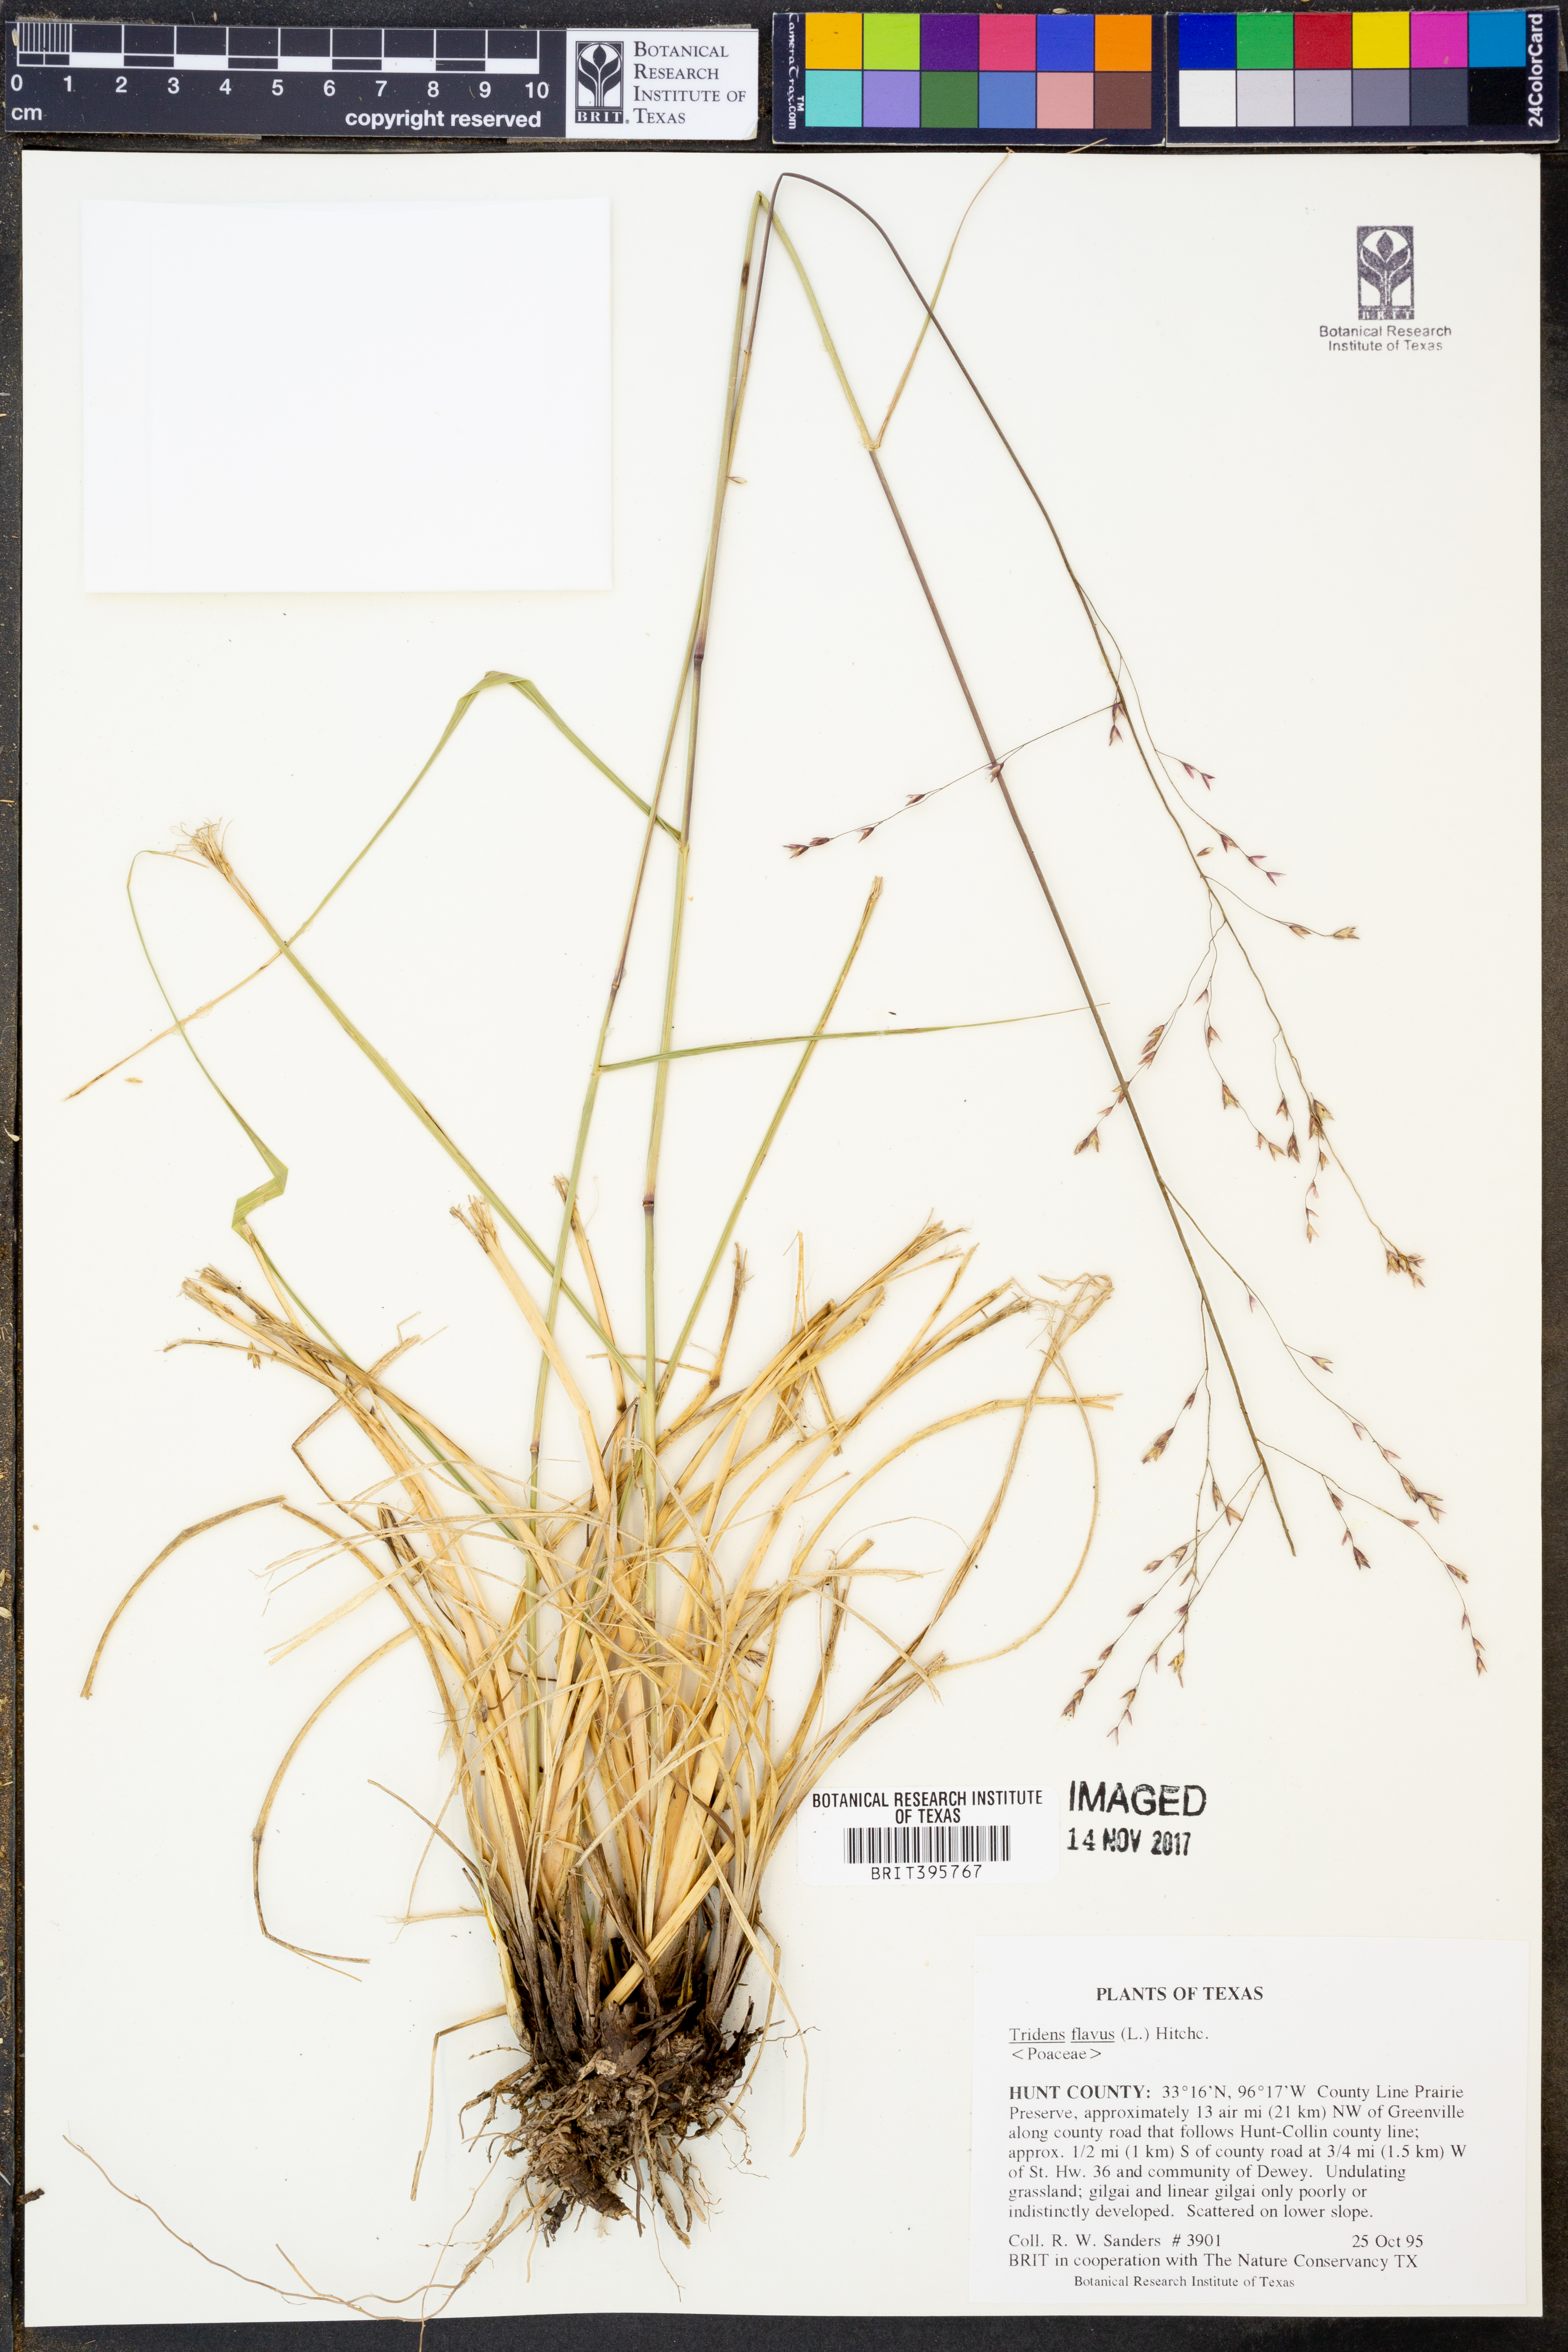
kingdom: Plantae
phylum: Tracheophyta
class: Liliopsida
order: Poales
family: Poaceae
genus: Tridens
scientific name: Tridens flavus
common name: Purpletop
